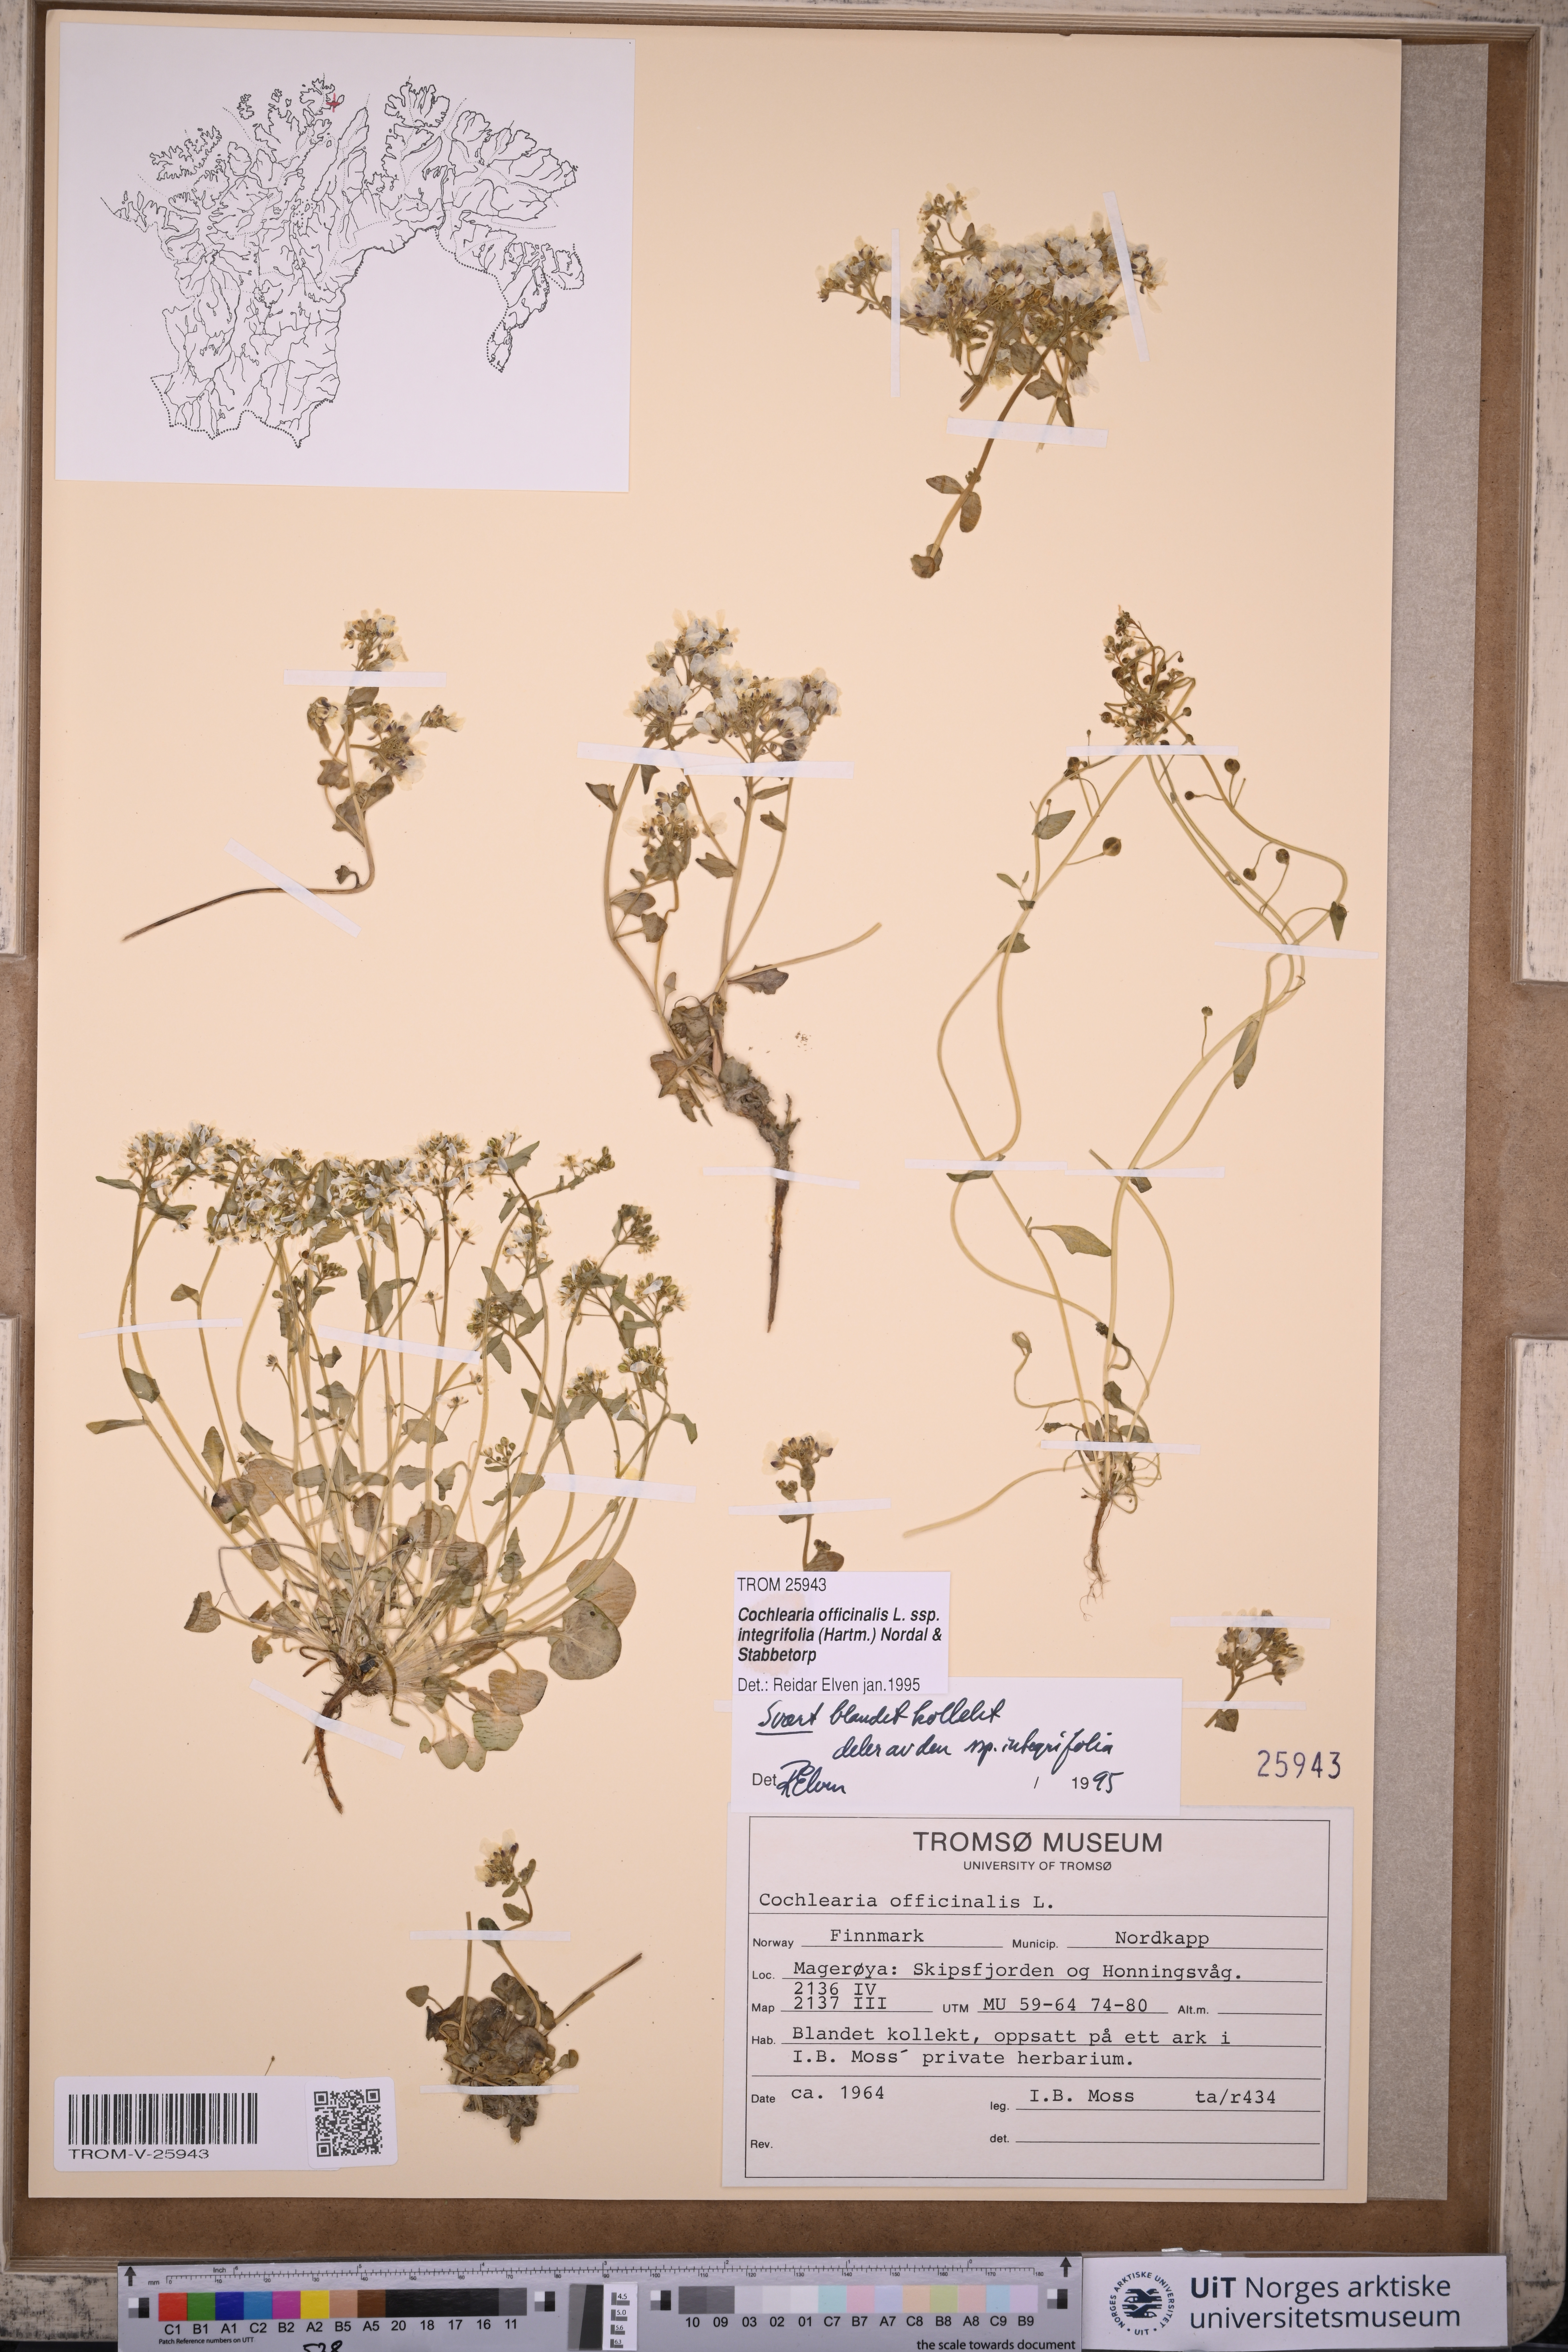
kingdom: Plantae
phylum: Tracheophyta
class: Magnoliopsida
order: Brassicales
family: Brassicaceae
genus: Cochlearia
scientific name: Cochlearia officinalis
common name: Scurvy-grass
